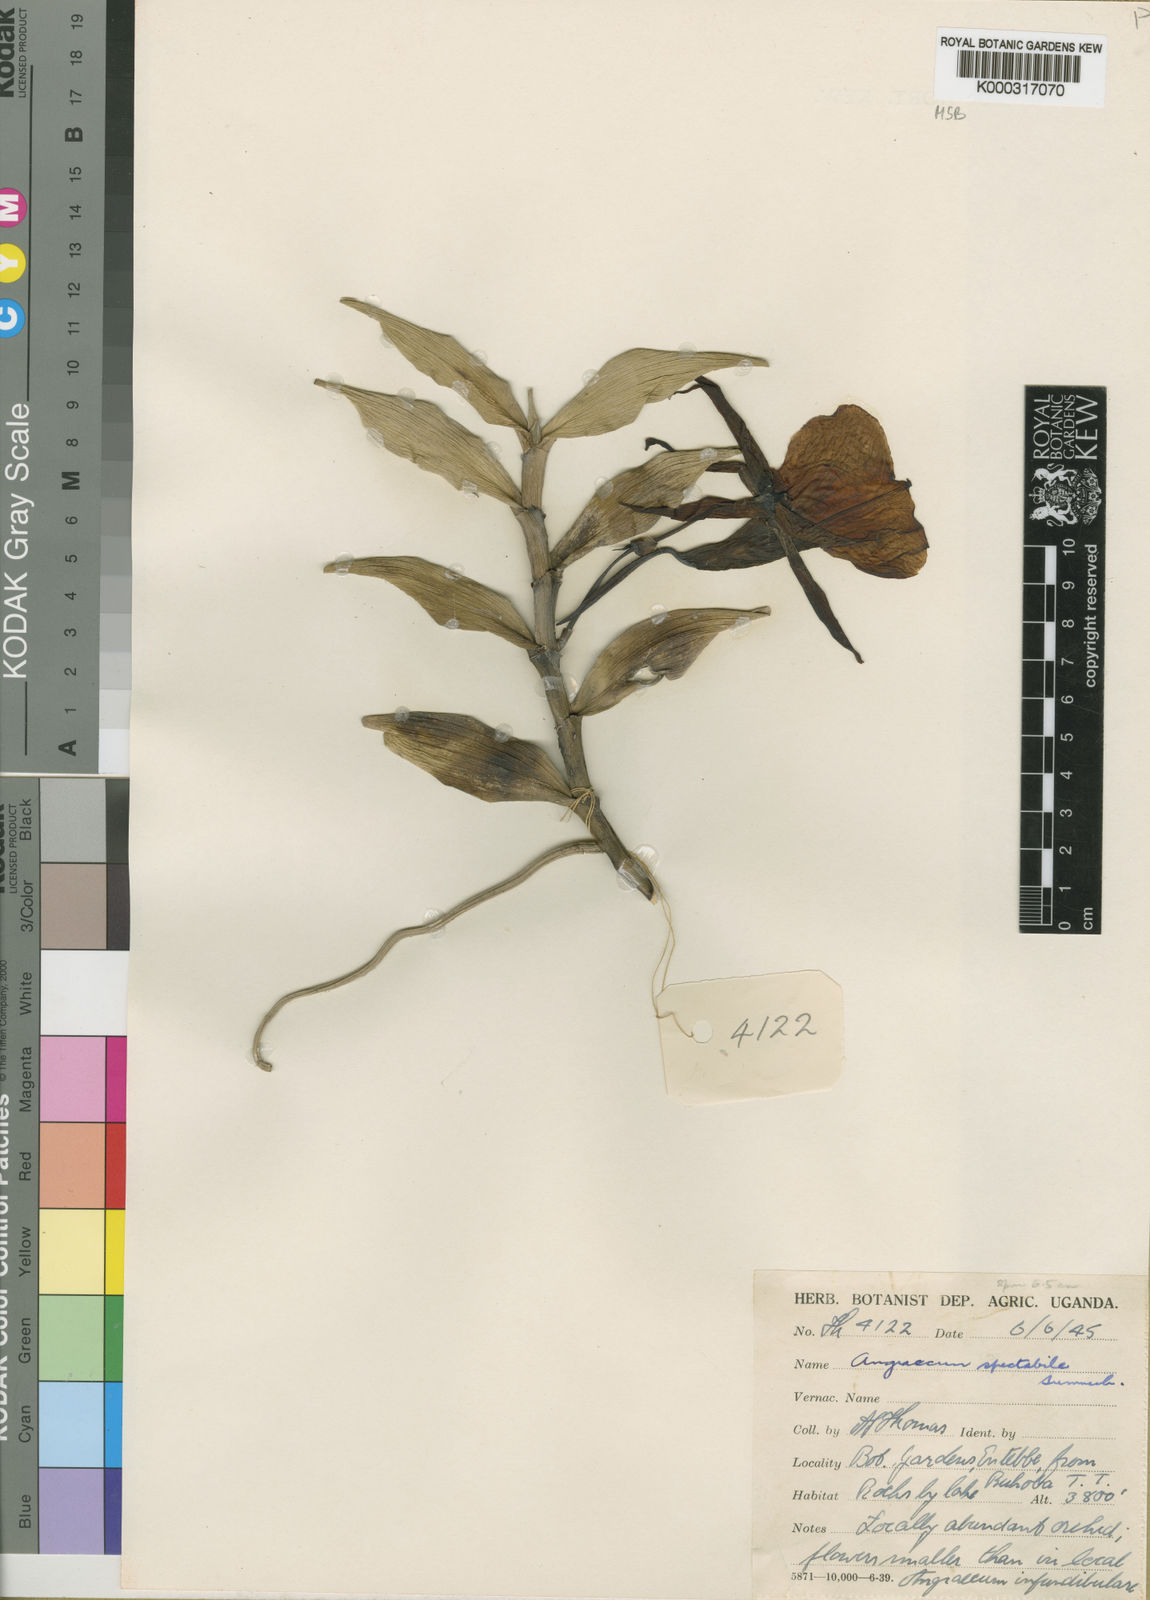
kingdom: Plantae
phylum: Tracheophyta
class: Liliopsida
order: Asparagales
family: Orchidaceae
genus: Angraecum
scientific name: Angraecum spectabile
